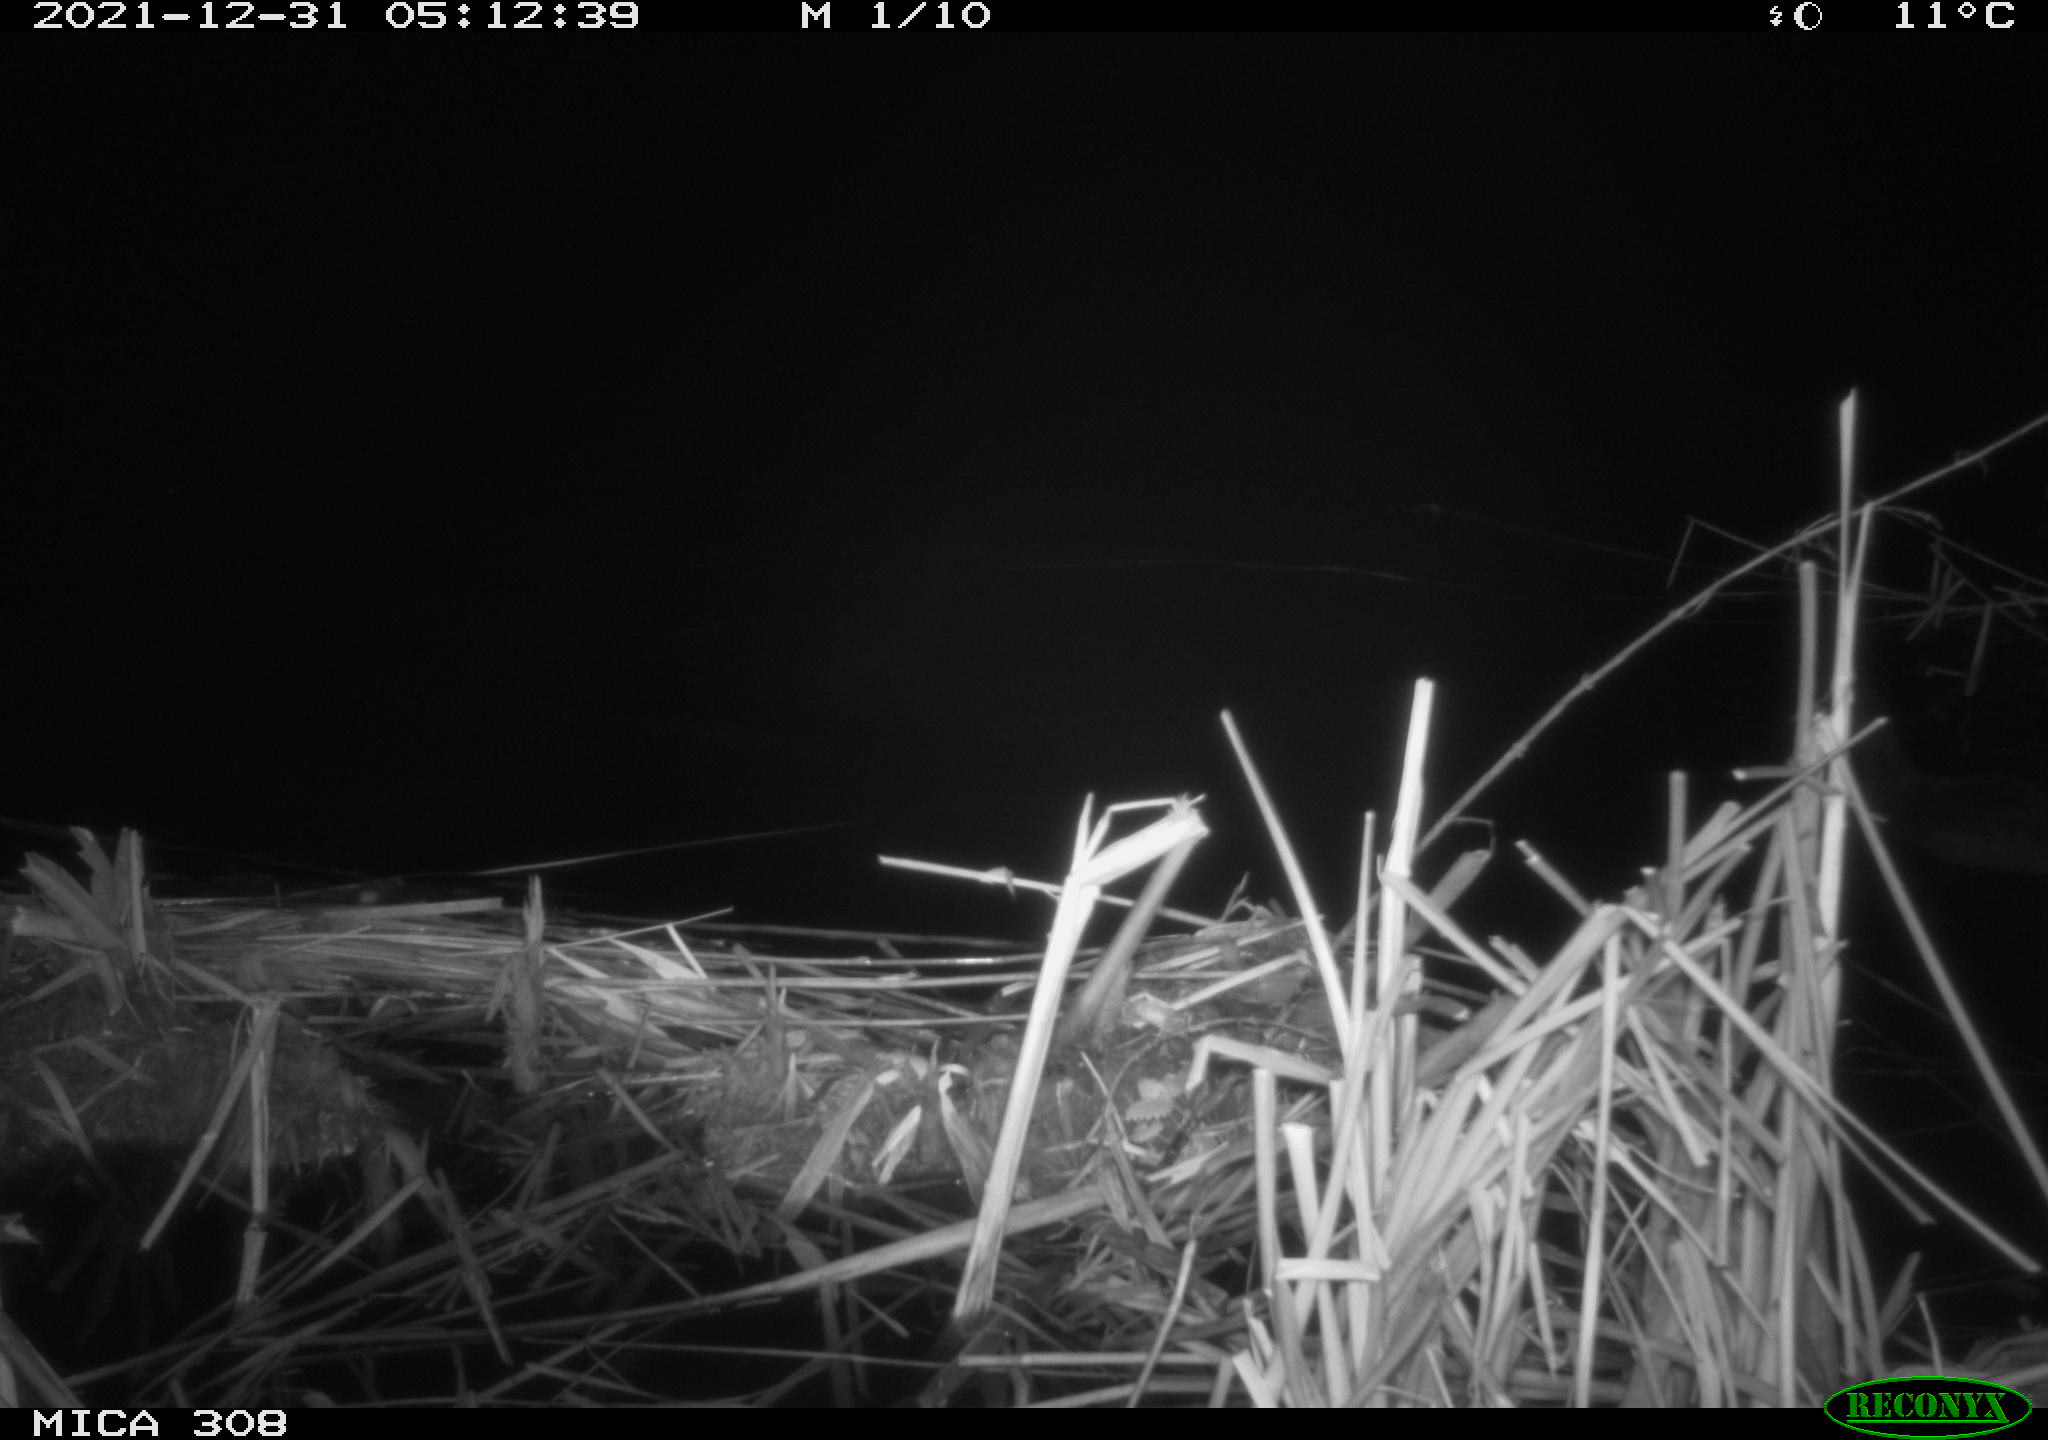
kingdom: Animalia
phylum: Chordata
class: Aves
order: Gruiformes
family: Rallidae
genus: Fulica
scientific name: Fulica atra
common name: Eurasian coot
